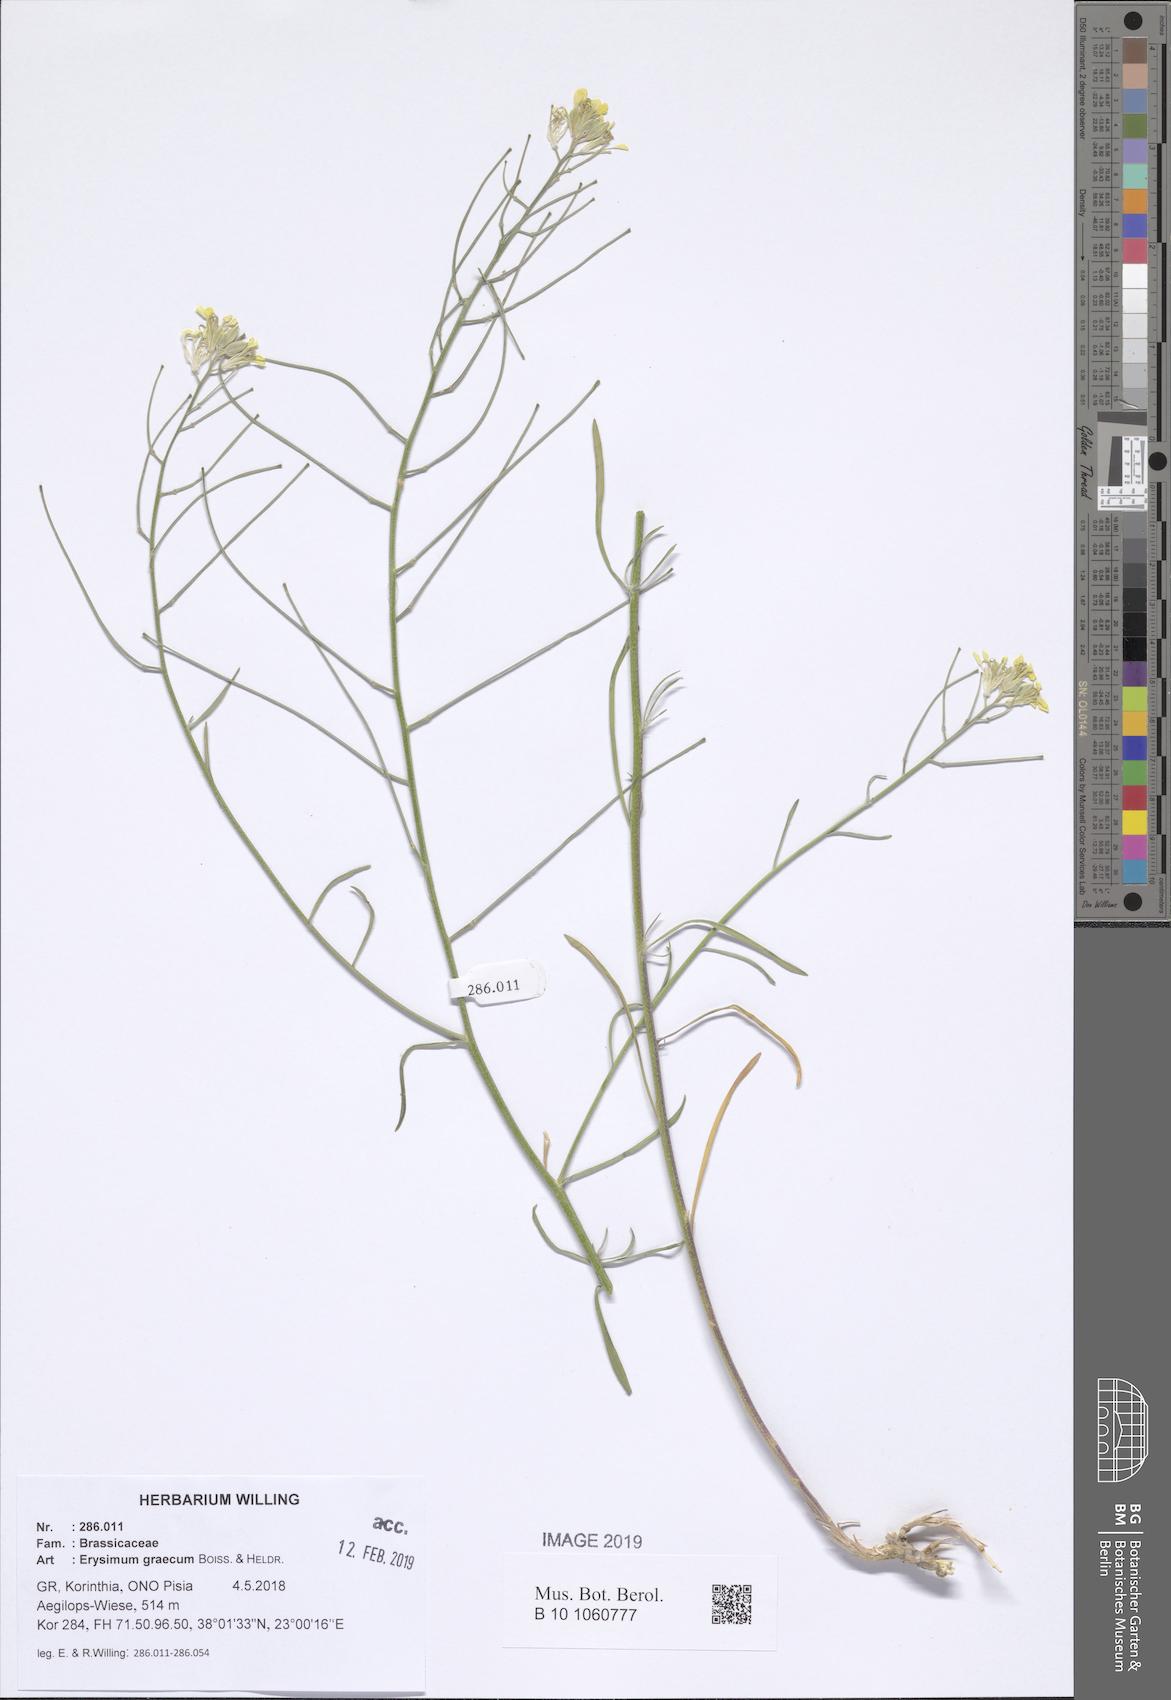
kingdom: Plantae
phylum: Tracheophyta
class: Magnoliopsida
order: Brassicales
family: Brassicaceae
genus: Erysimum
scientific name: Erysimum graecum
